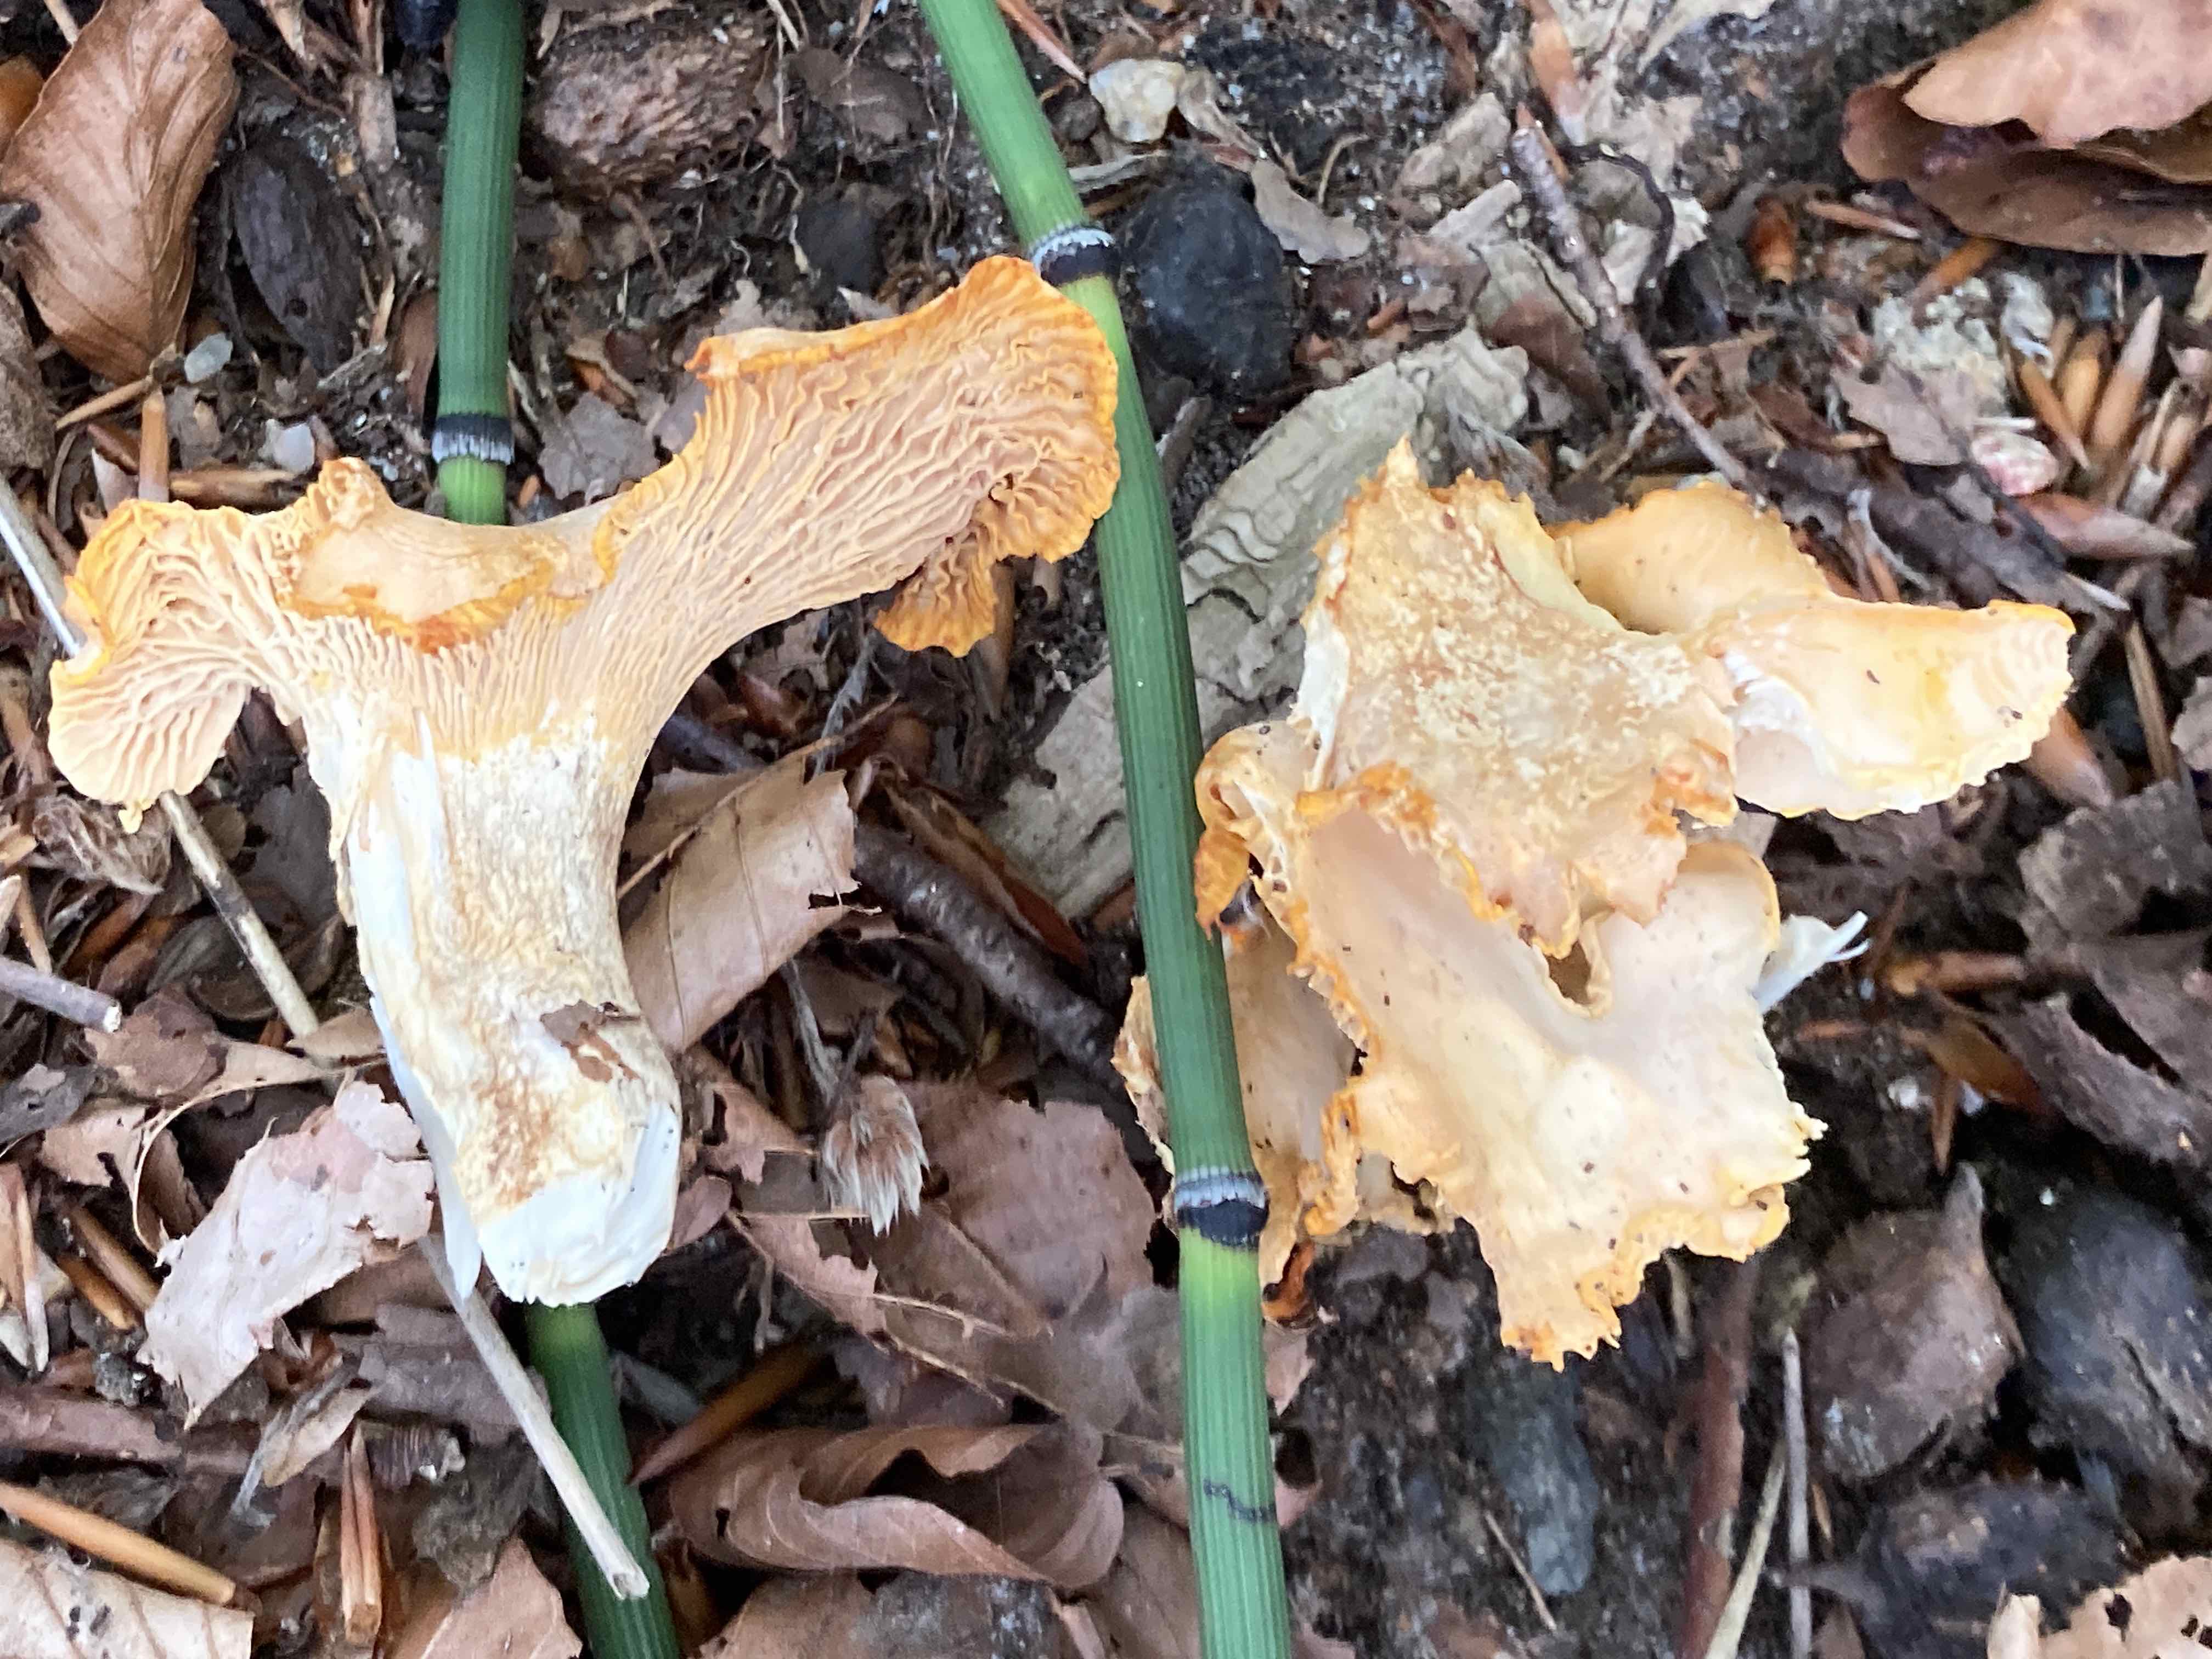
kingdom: Fungi
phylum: Basidiomycota
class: Agaricomycetes
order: Cantharellales
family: Hydnaceae
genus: Cantharellus
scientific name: Cantharellus pallens
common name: bleg kantarel
